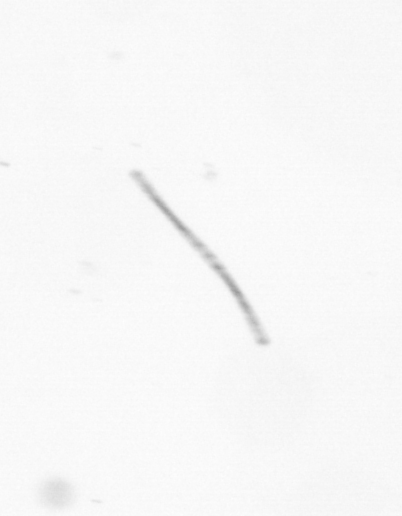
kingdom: Chromista
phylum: Ochrophyta
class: Bacillariophyceae
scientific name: Bacillariophyceae
